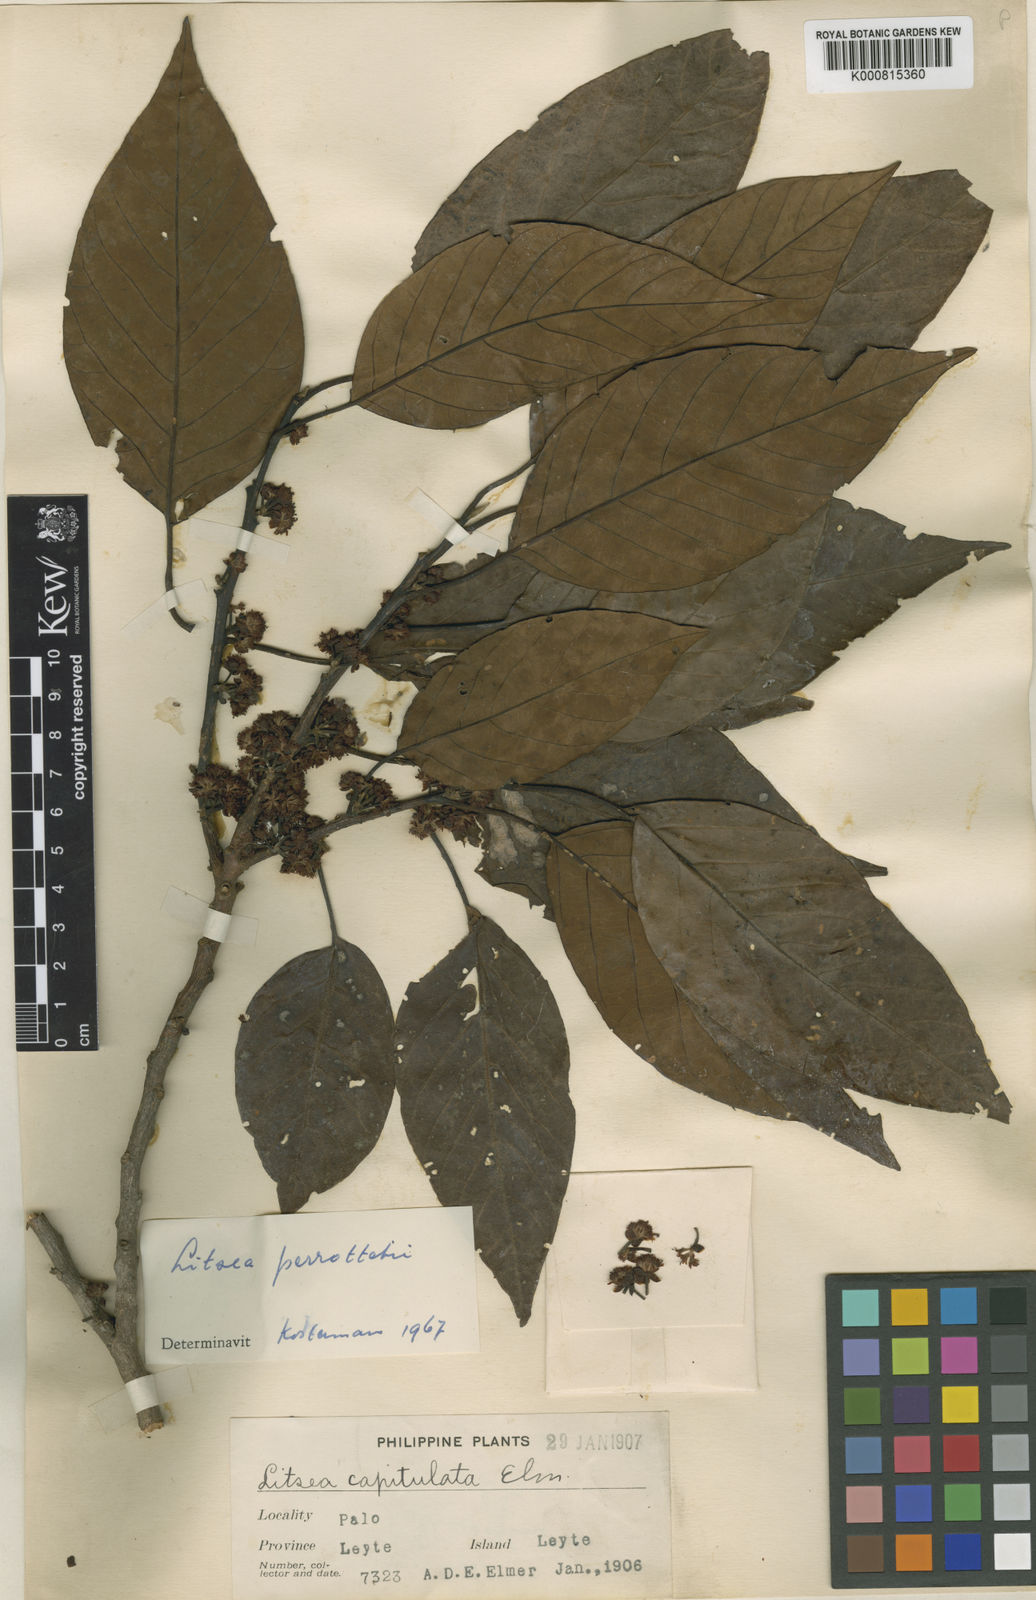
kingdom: Plantae
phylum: Tracheophyta
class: Magnoliopsida
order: Laurales
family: Lauraceae
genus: Litsea
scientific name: Litsea cordata
